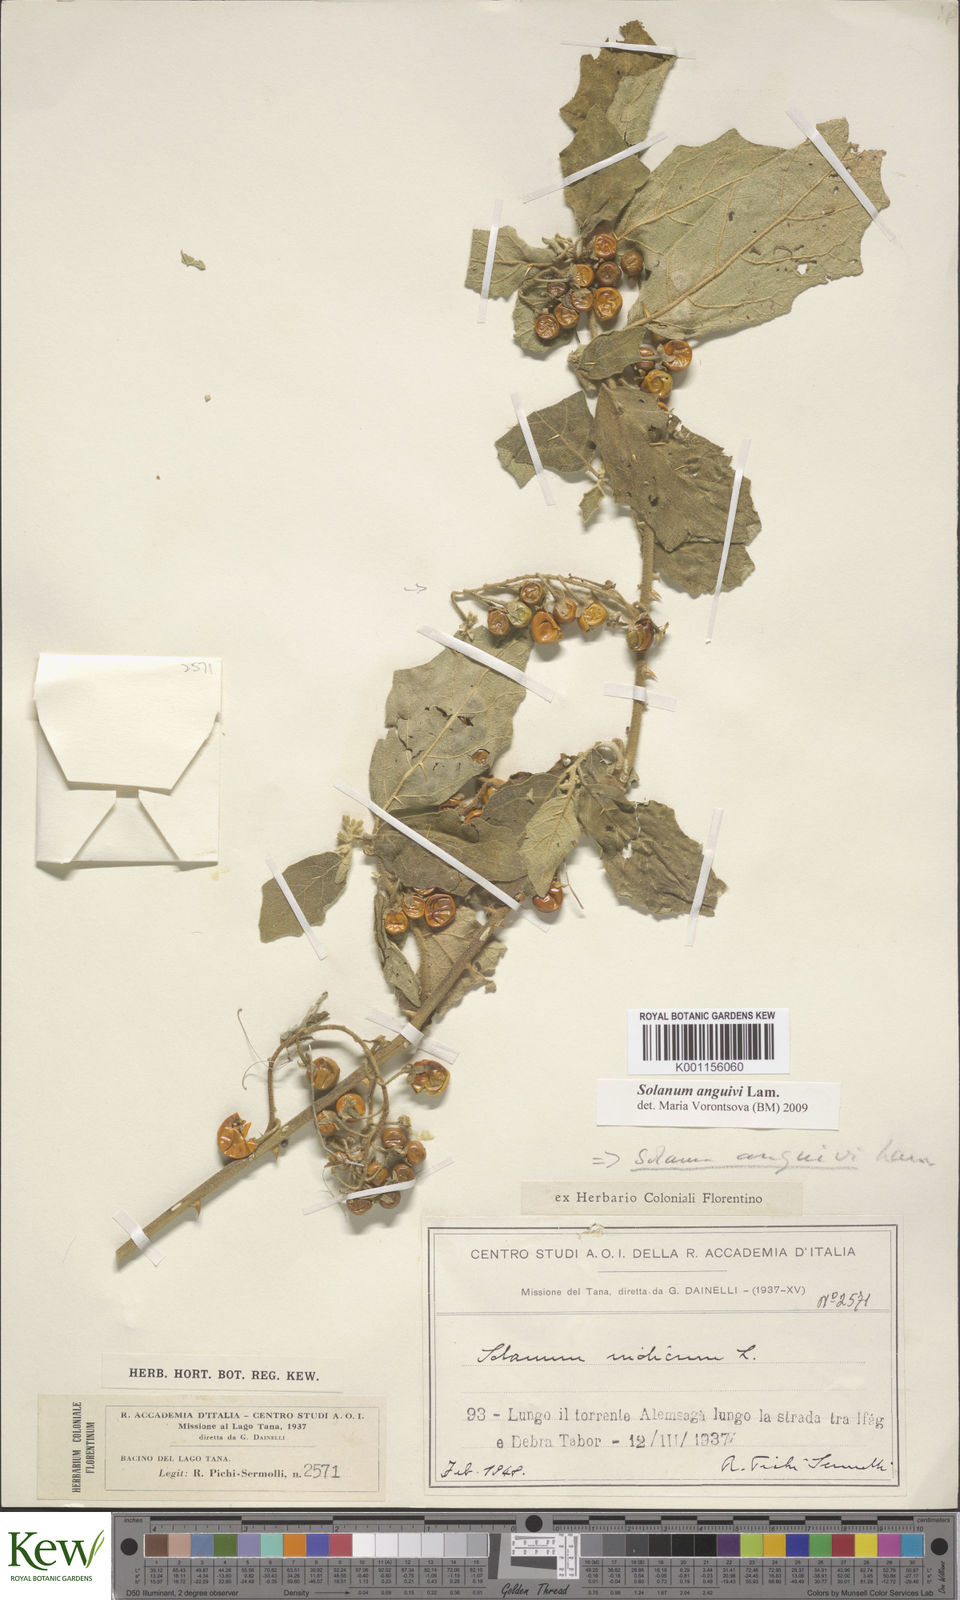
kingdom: Plantae
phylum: Tracheophyta
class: Magnoliopsida
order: Solanales
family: Solanaceae
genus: Solanum
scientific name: Solanum anguivi
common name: Forest bitterberry
